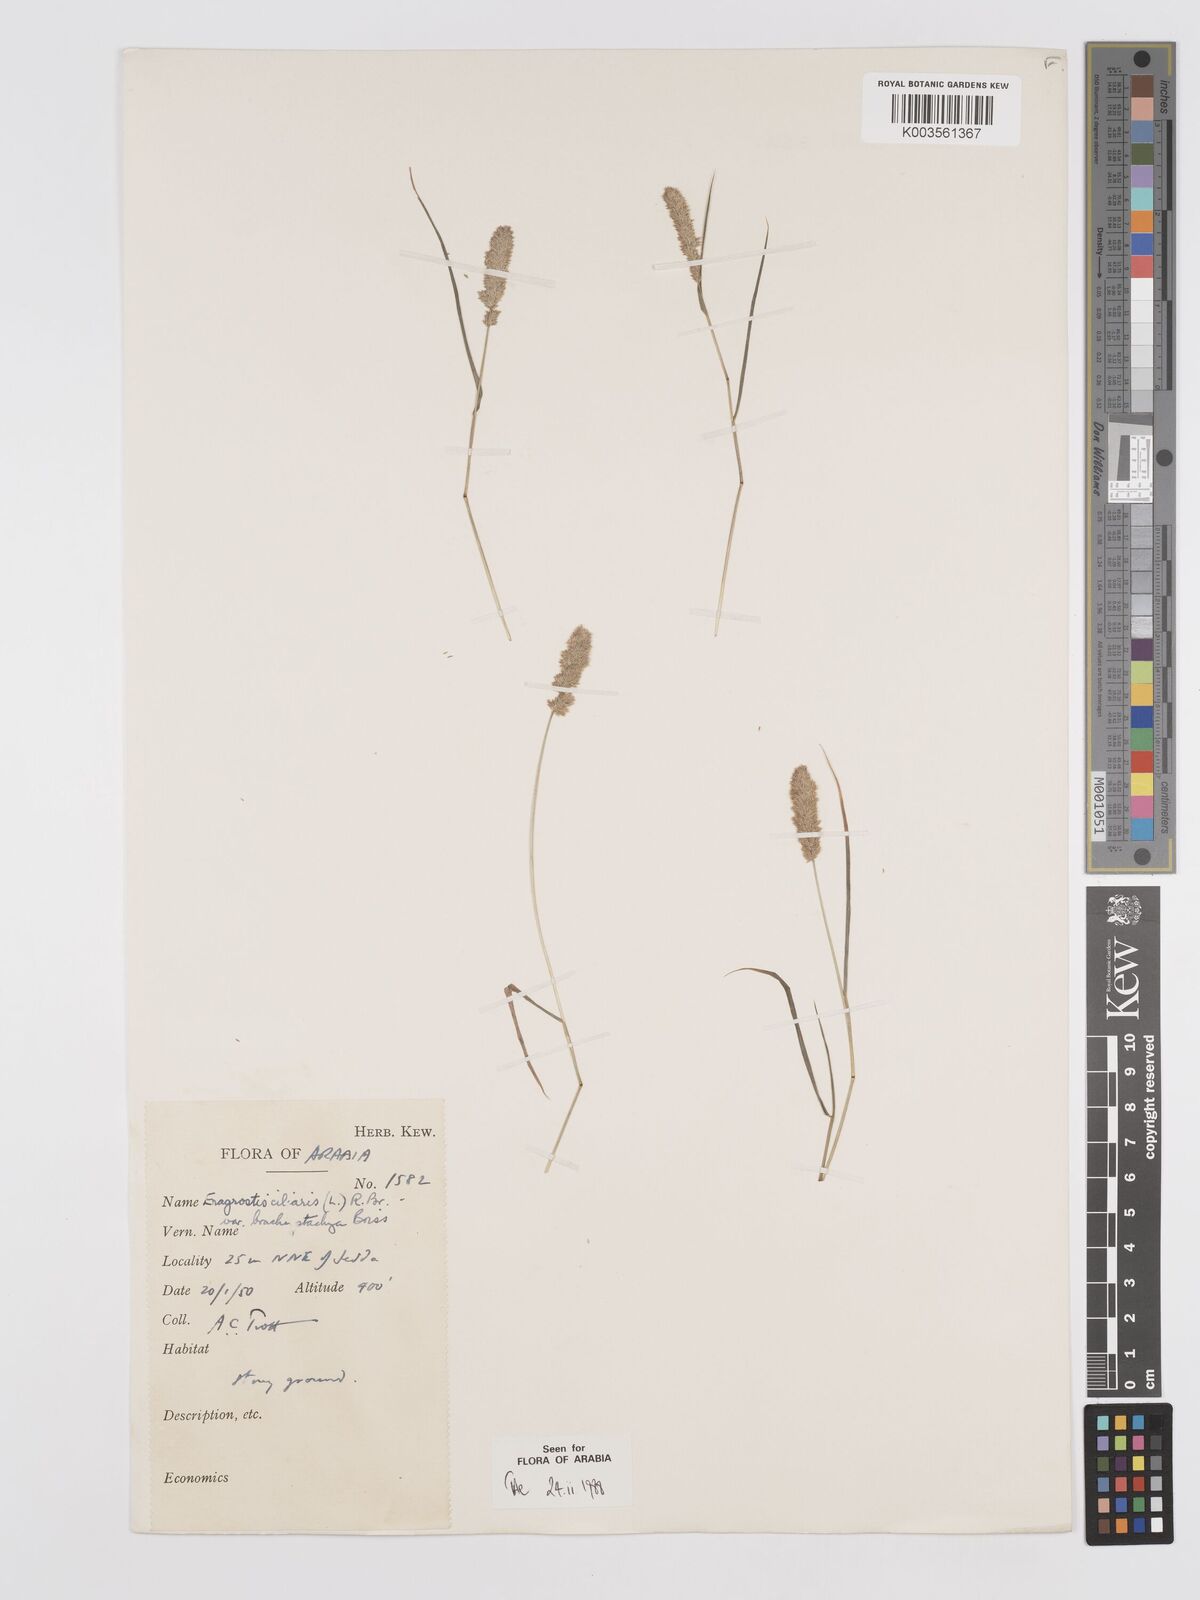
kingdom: Plantae
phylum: Tracheophyta
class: Liliopsida
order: Poales
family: Poaceae
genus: Eragrostis
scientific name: Eragrostis ciliaris
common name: Gophertail lovegrass
